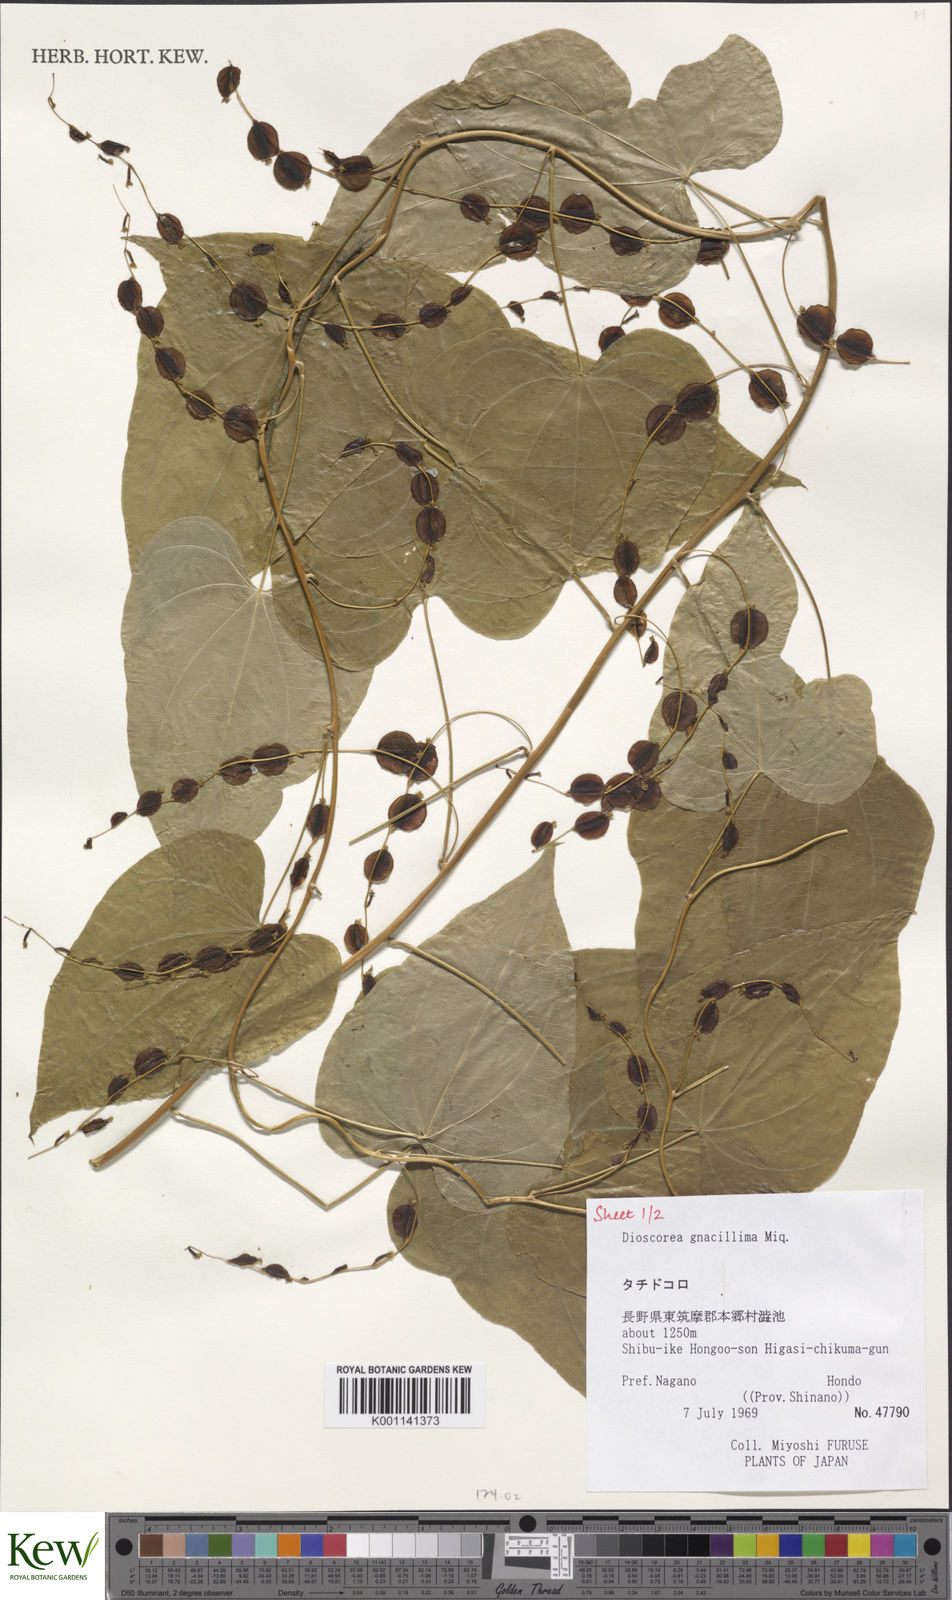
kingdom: Plantae
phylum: Tracheophyta
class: Liliopsida
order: Dioscoreales
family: Dioscoreaceae
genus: Dioscorea
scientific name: Dioscorea gracillima
